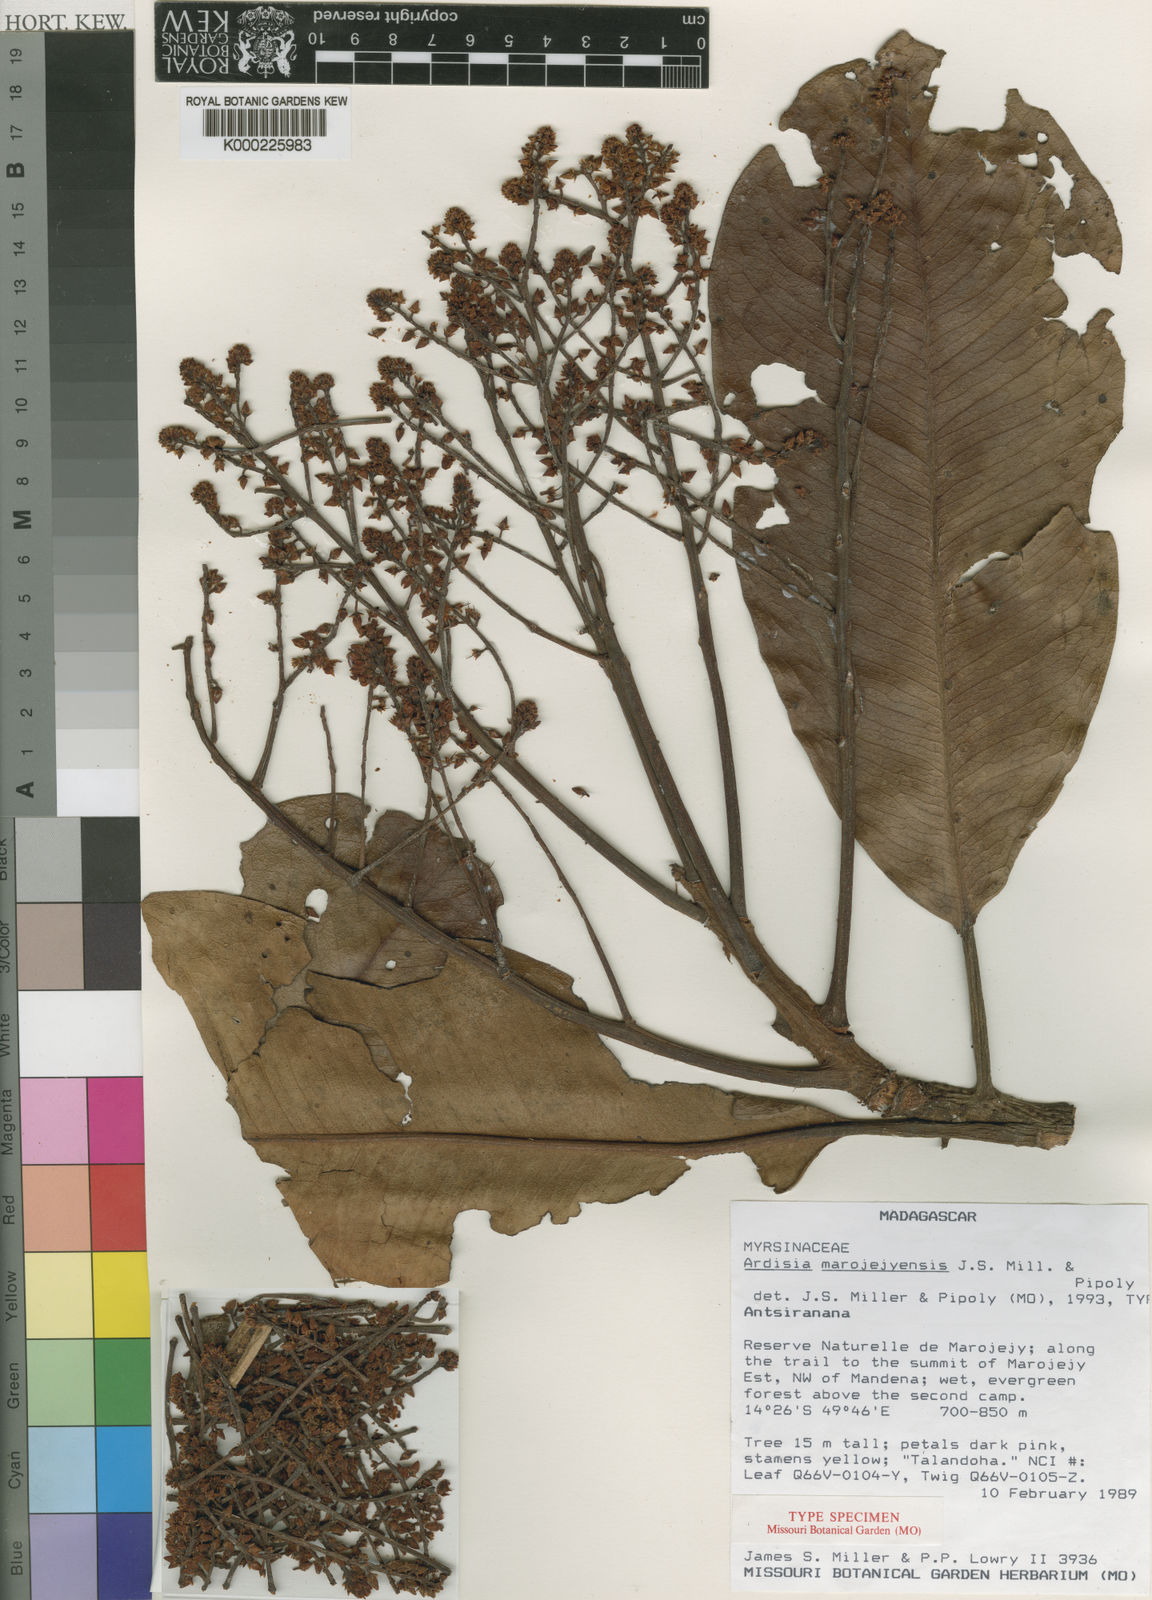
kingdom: Plantae
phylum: Tracheophyta
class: Magnoliopsida
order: Ericales
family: Primulaceae
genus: Ardisia
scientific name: Ardisia marojejyensis
